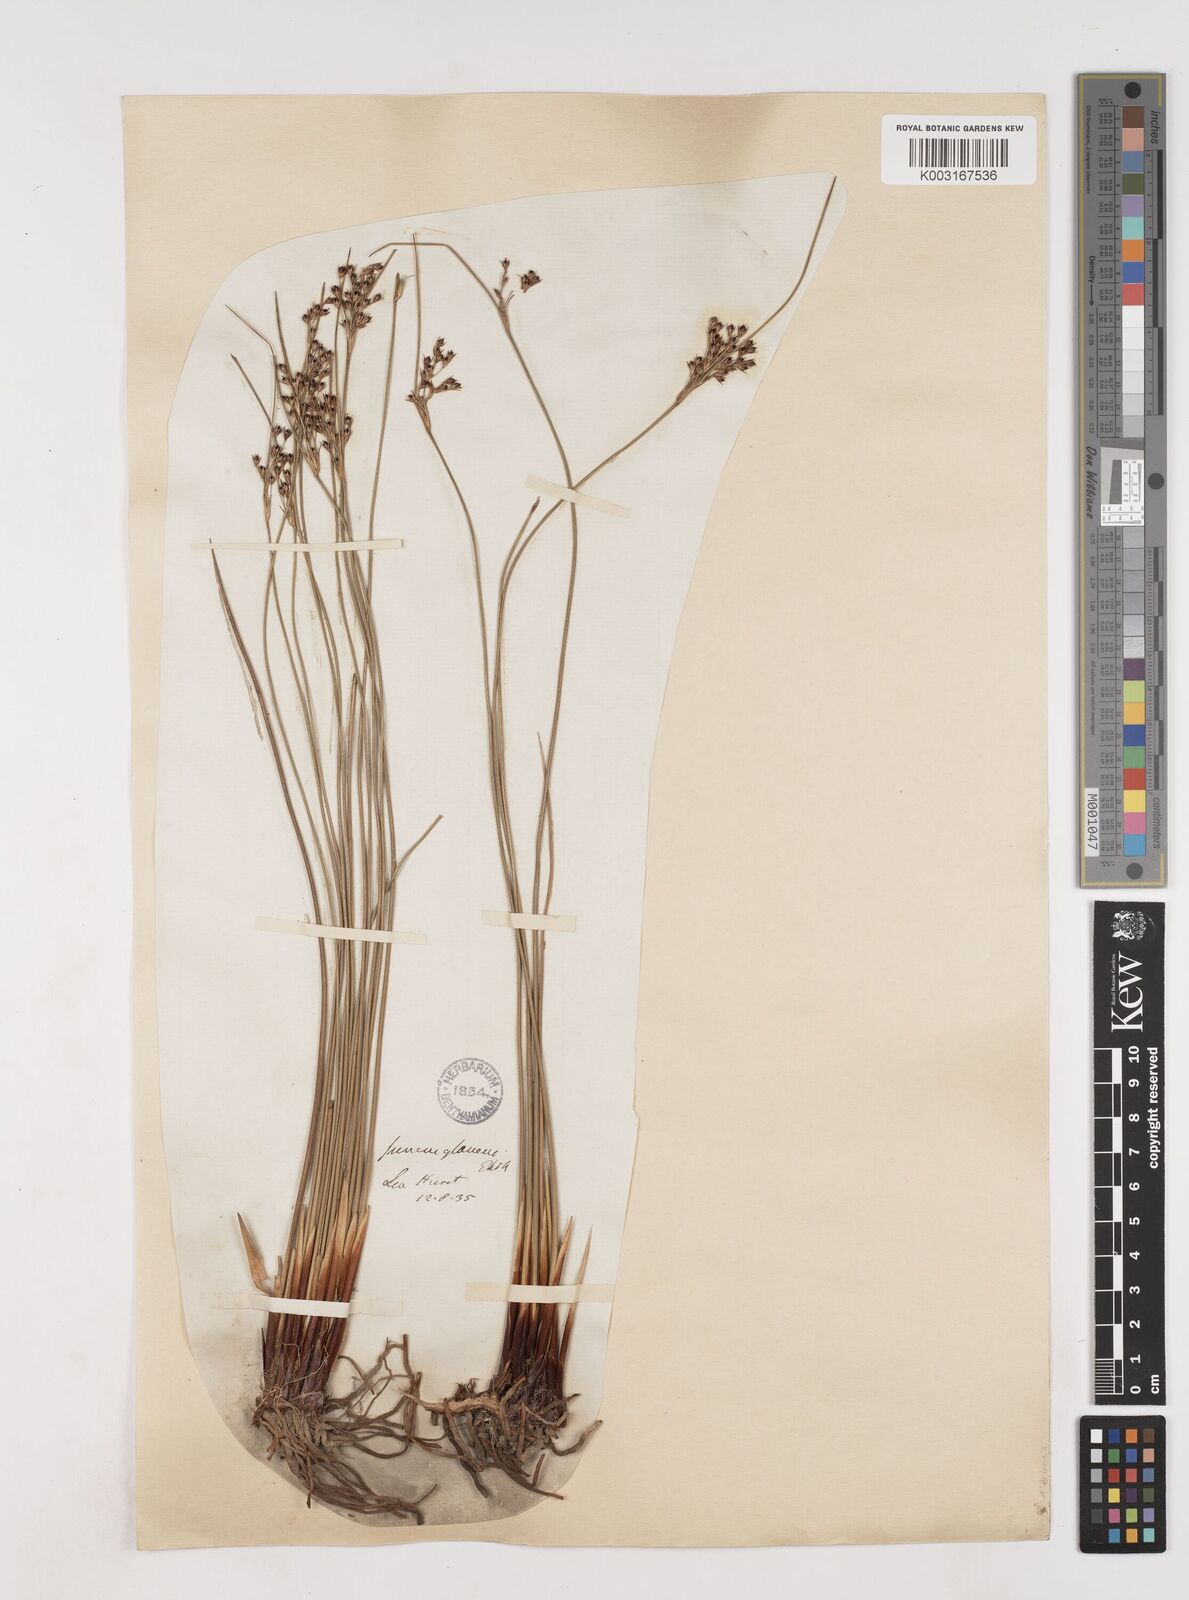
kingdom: Plantae
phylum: Tracheophyta
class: Liliopsida
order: Poales
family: Juncaceae
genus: Juncus
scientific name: Juncus inflexus
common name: Hard rush
